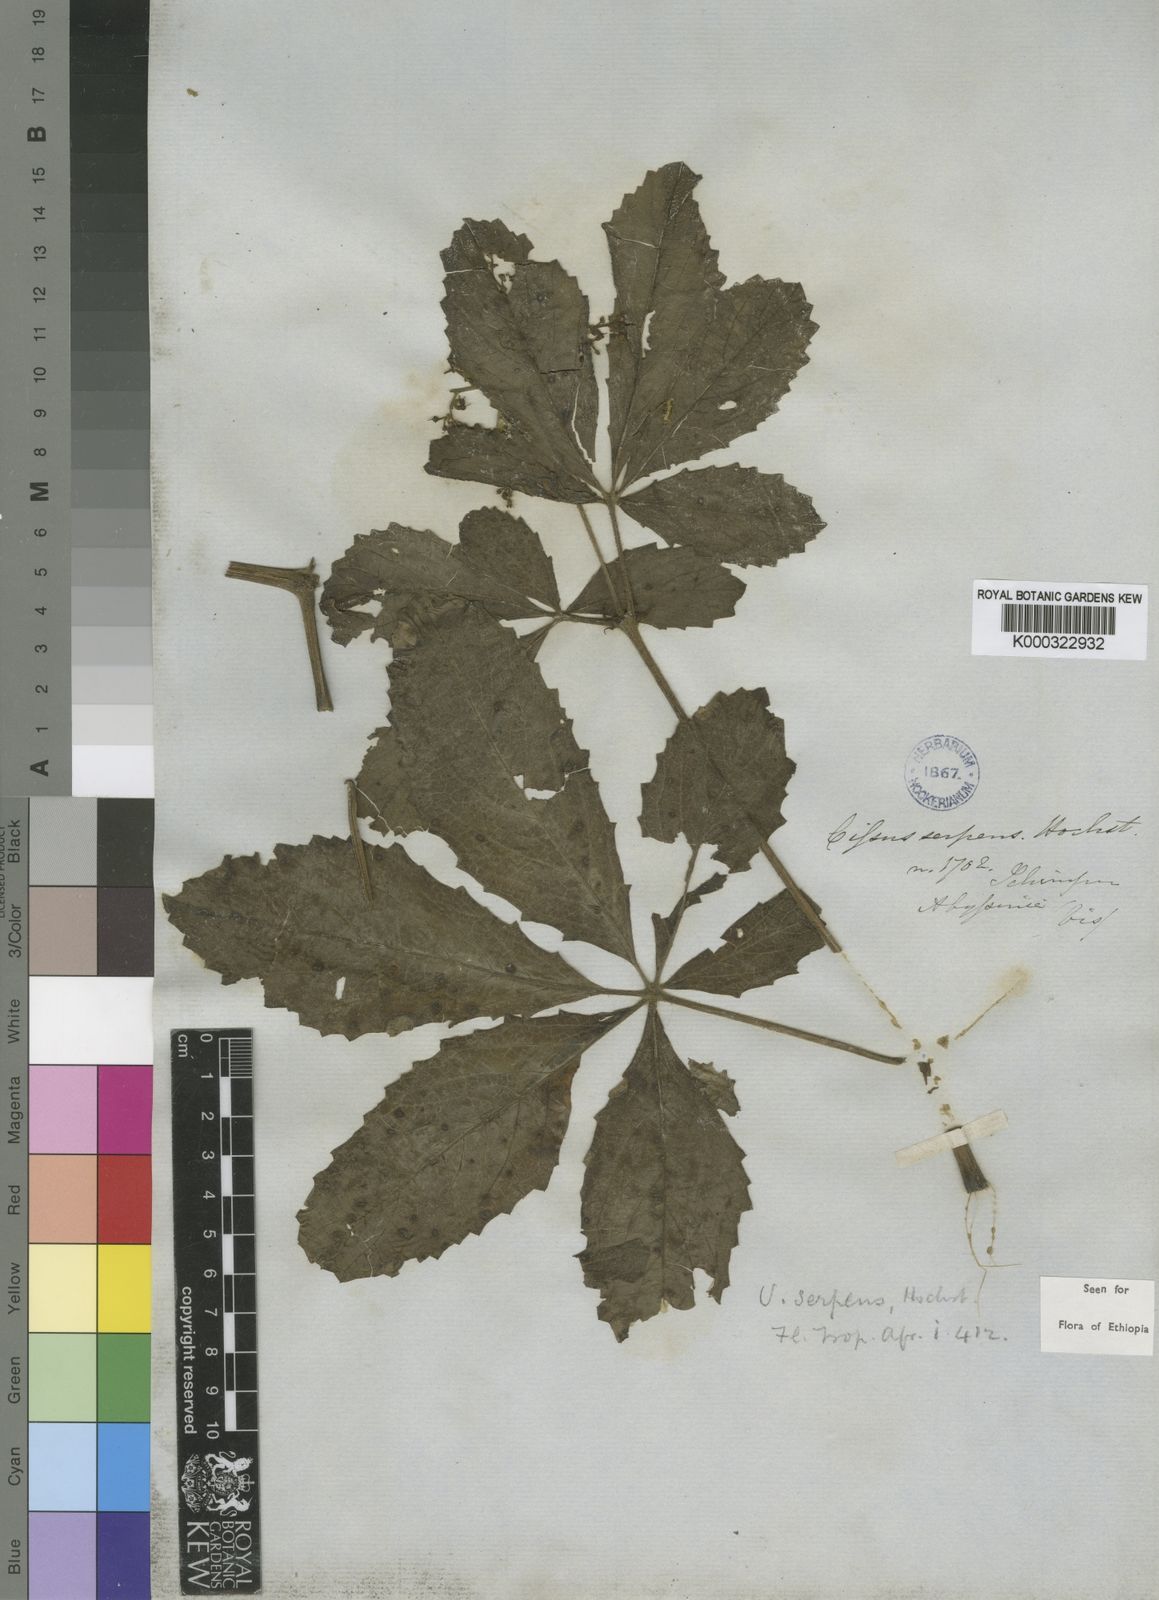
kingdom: Plantae
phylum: Tracheophyta
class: Magnoliopsida
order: Vitales
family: Vitaceae
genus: Cyphostemma
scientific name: Cyphostemma serpens
